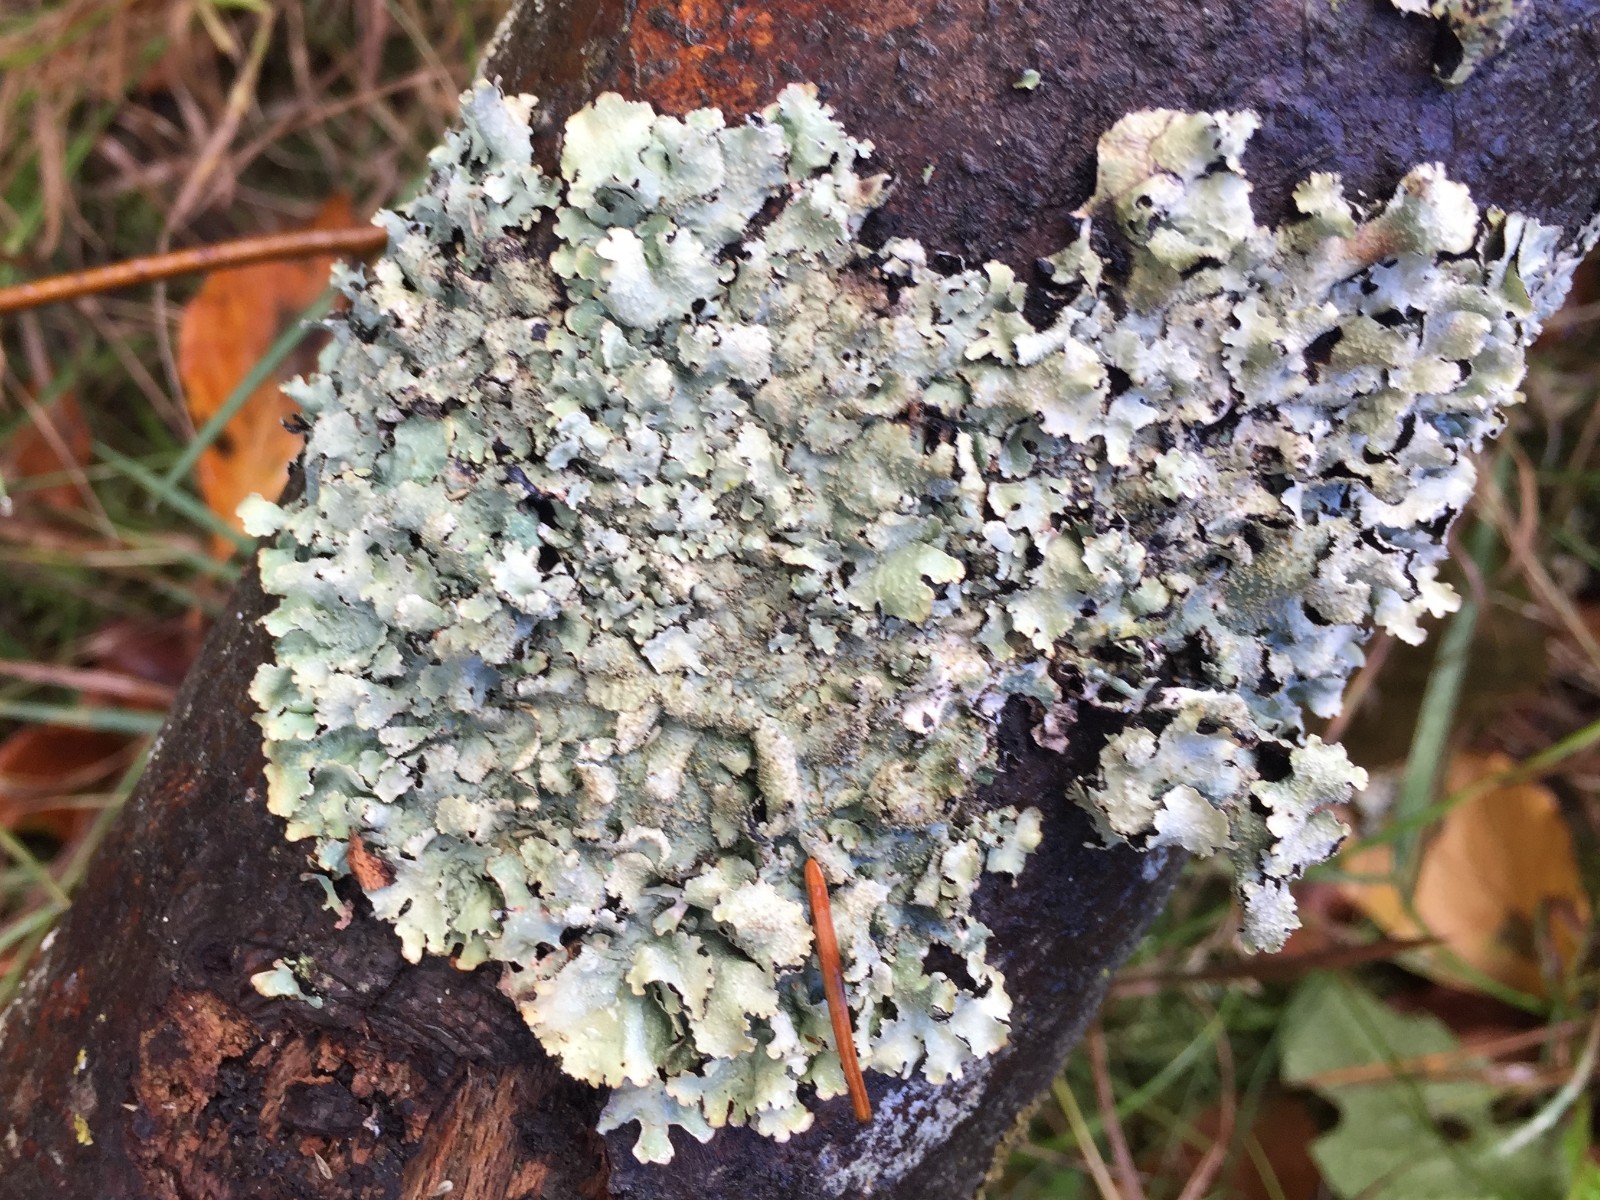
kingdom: Fungi
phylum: Ascomycota
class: Lecanoromycetes
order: Lecanorales
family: Parmeliaceae
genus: Parmelia
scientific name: Parmelia saxatilis
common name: farve-skållav
